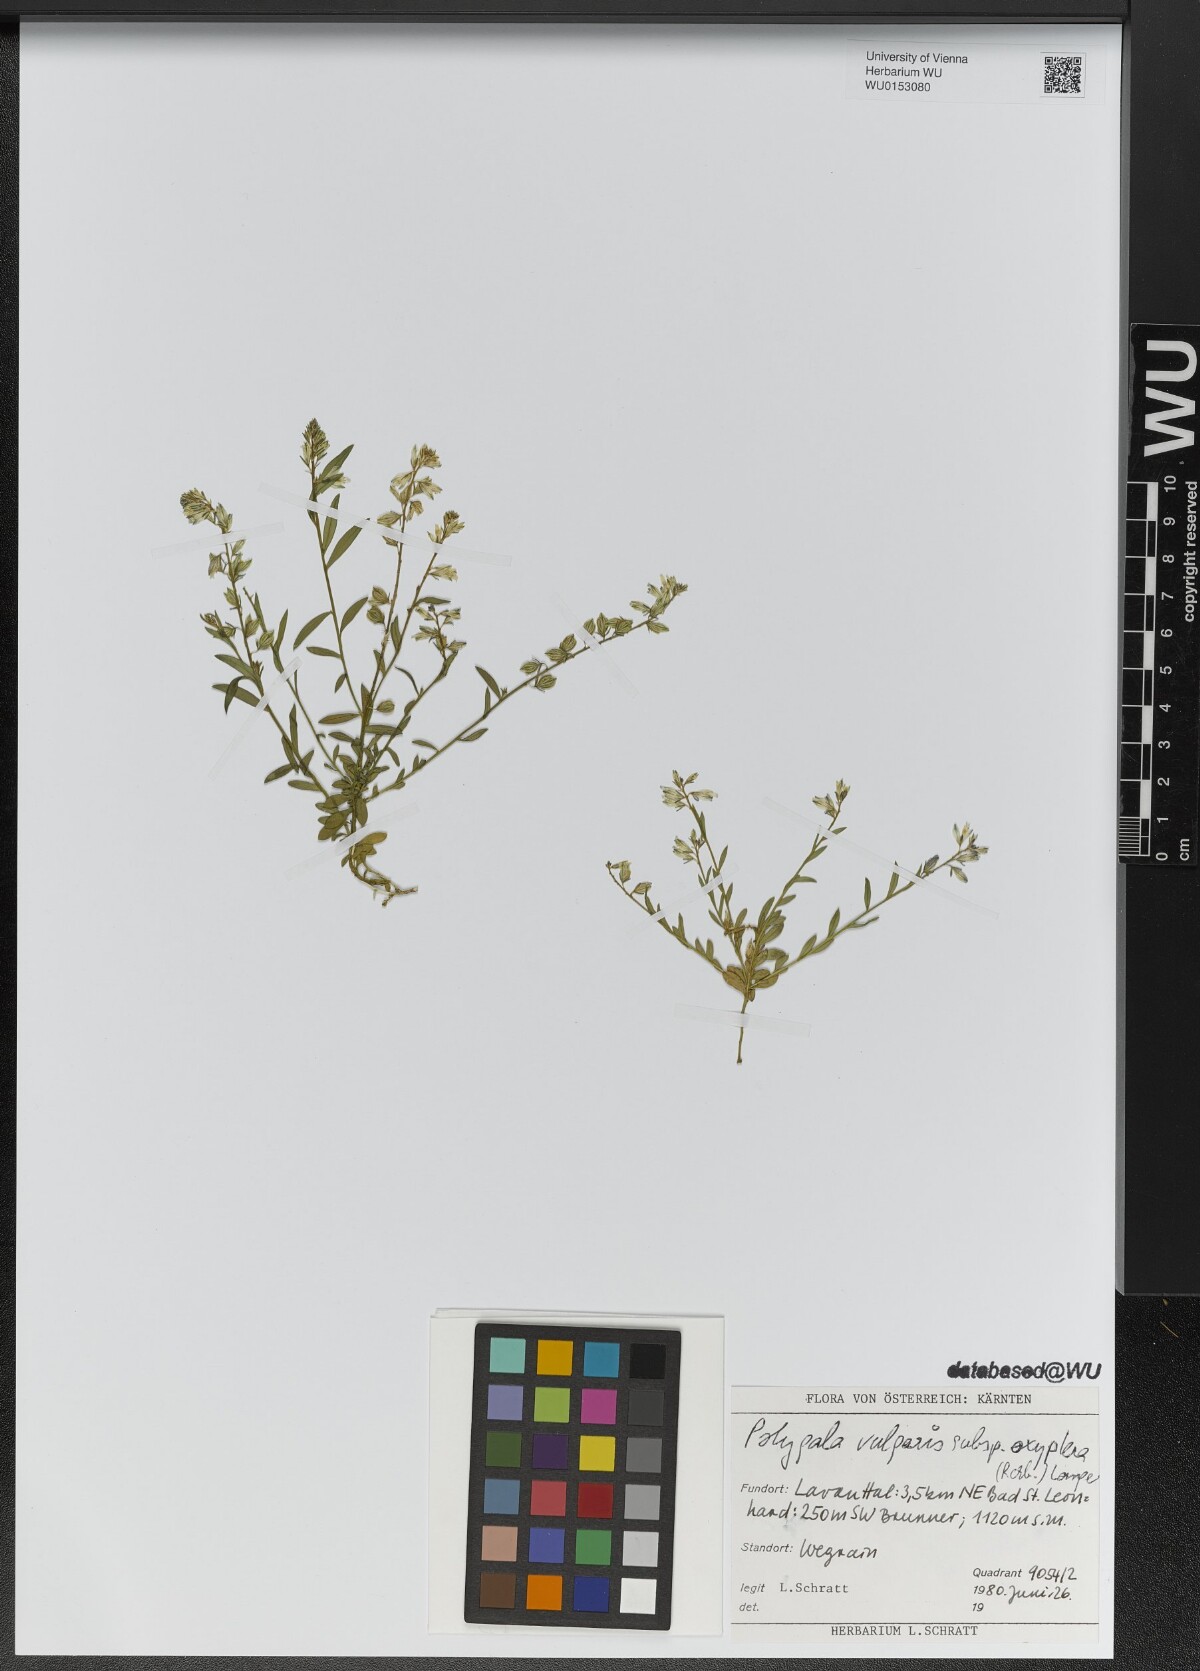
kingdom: Plantae
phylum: Tracheophyta
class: Magnoliopsida
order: Fabales
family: Polygalaceae
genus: Polygala
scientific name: Polygala vulgaris
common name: Common milkwort
